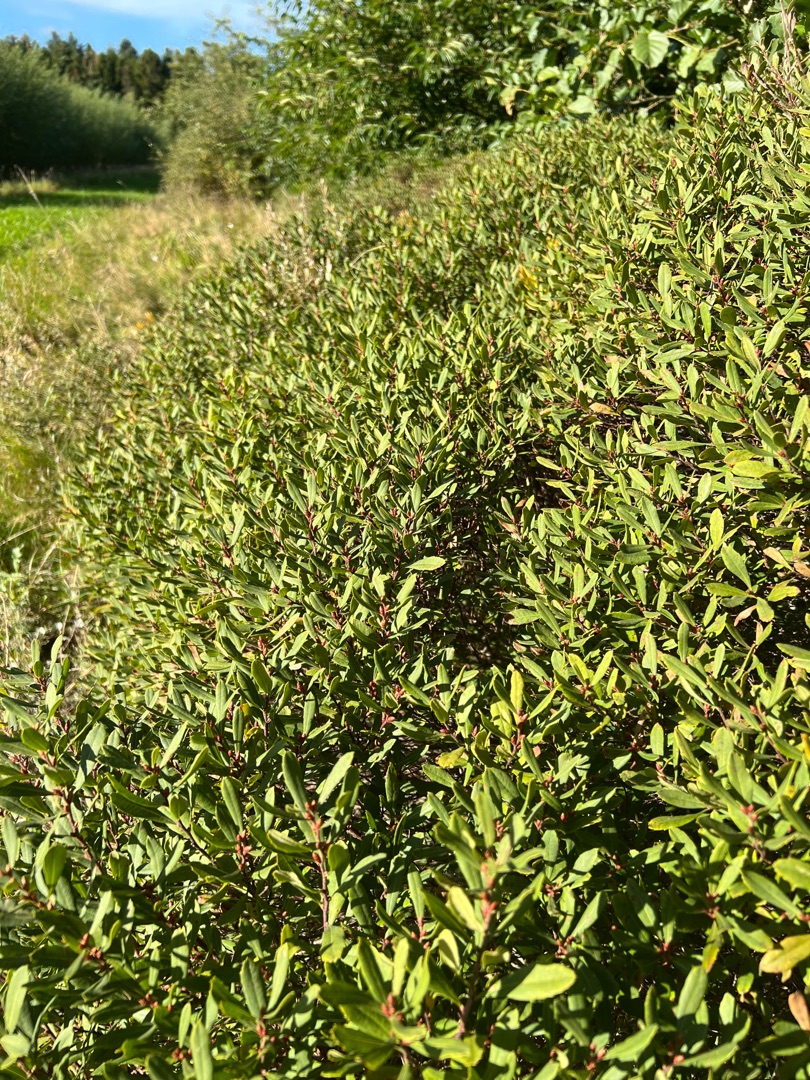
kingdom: Plantae
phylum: Tracheophyta
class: Magnoliopsida
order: Fagales
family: Myricaceae
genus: Myrica
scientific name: Myrica gale
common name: Pors
